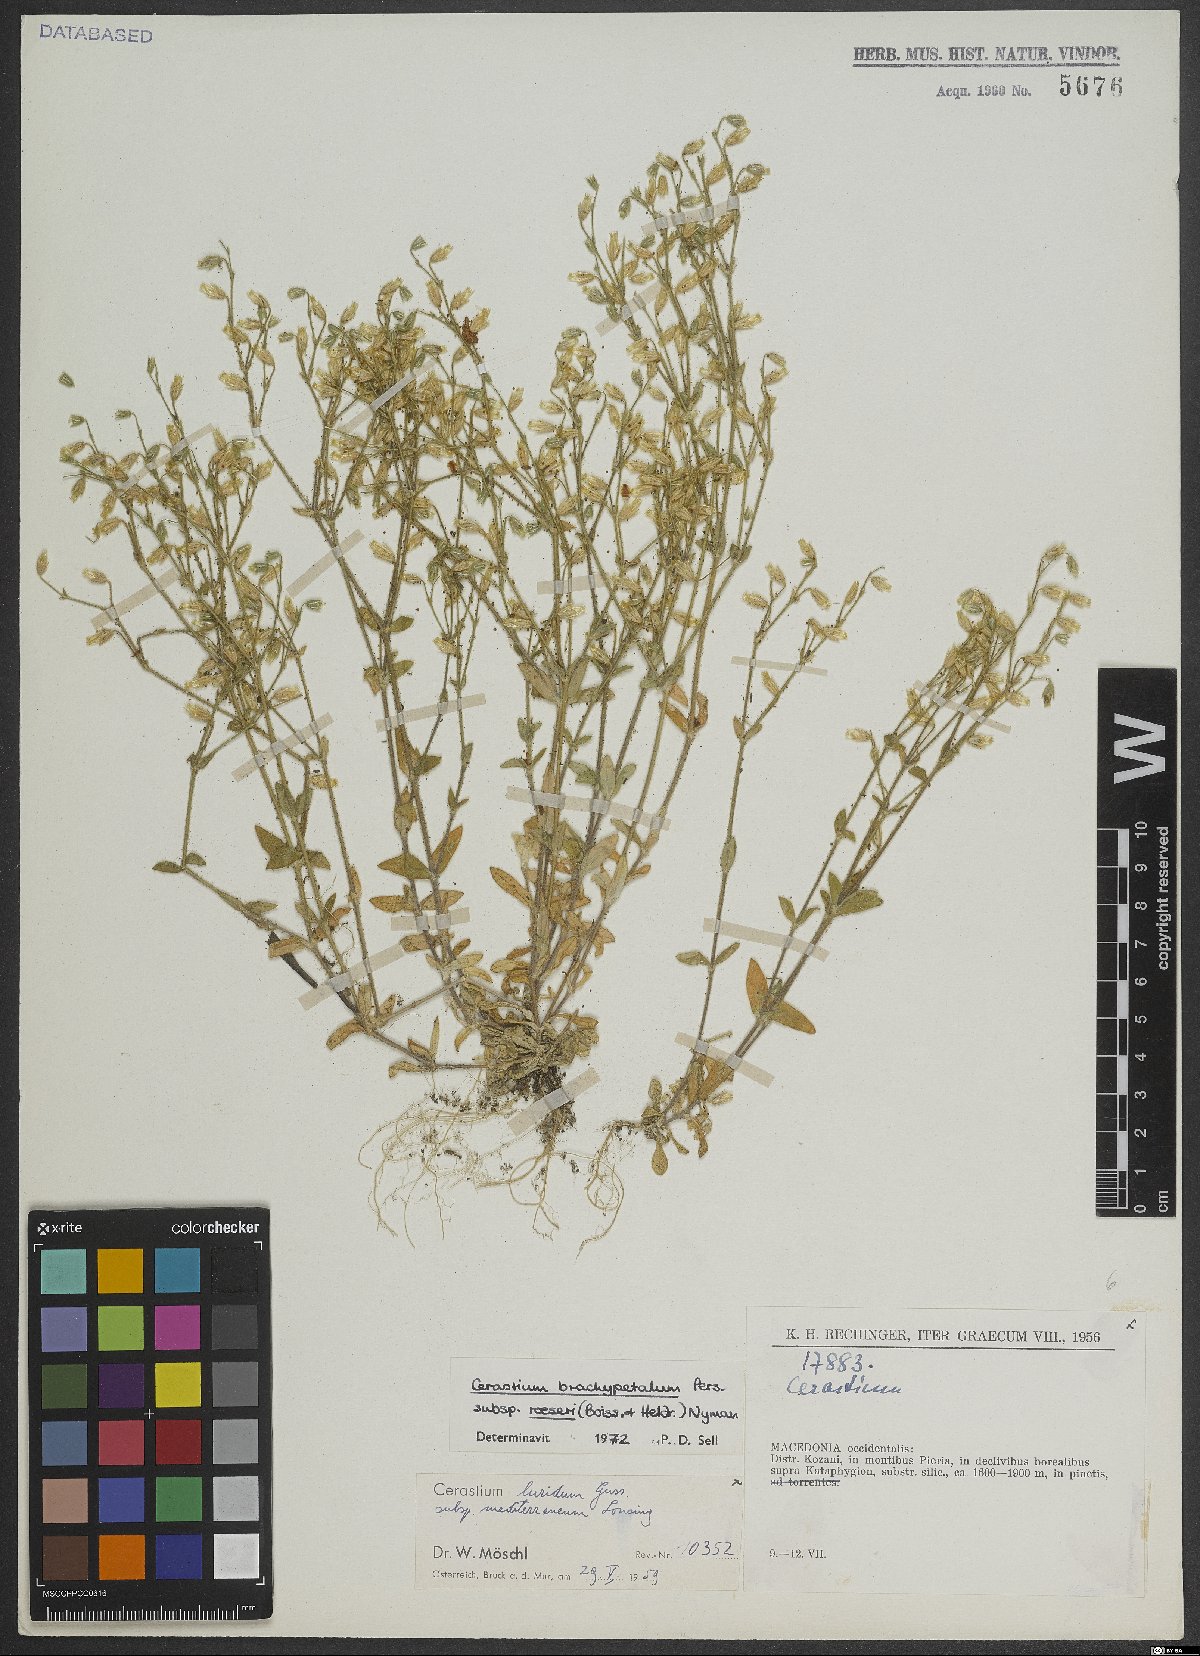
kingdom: Plantae
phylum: Tracheophyta
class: Magnoliopsida
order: Caryophyllales
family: Caryophyllaceae
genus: Cerastium
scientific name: Cerastium brachypetalum
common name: Grey mouse-ear
